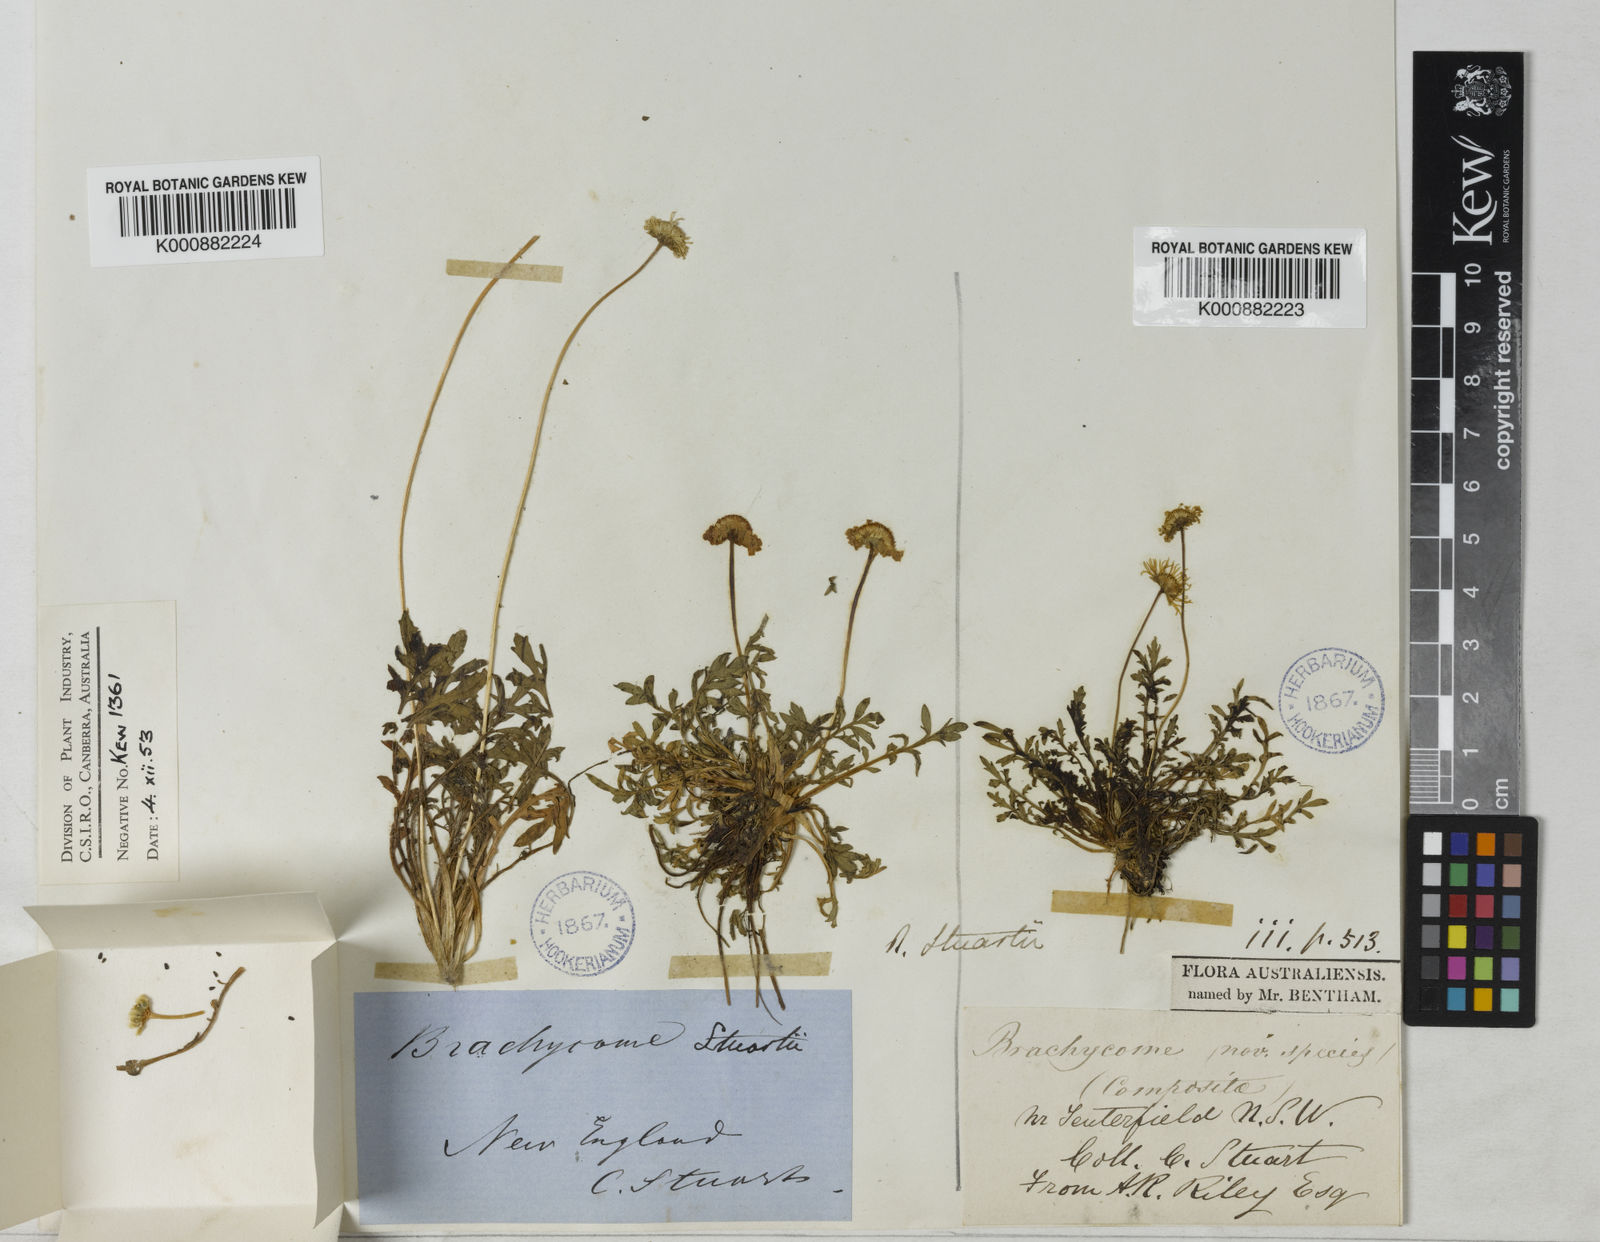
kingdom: Plantae
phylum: Tracheophyta
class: Magnoliopsida
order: Asterales
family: Asteraceae
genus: Brachyscome
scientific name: Brachyscome stuartii
